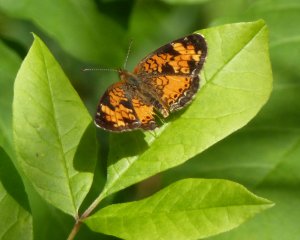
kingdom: Animalia
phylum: Arthropoda
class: Insecta
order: Lepidoptera
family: Nymphalidae
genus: Phyciodes
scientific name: Phyciodes tharos
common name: Northern Crescent
